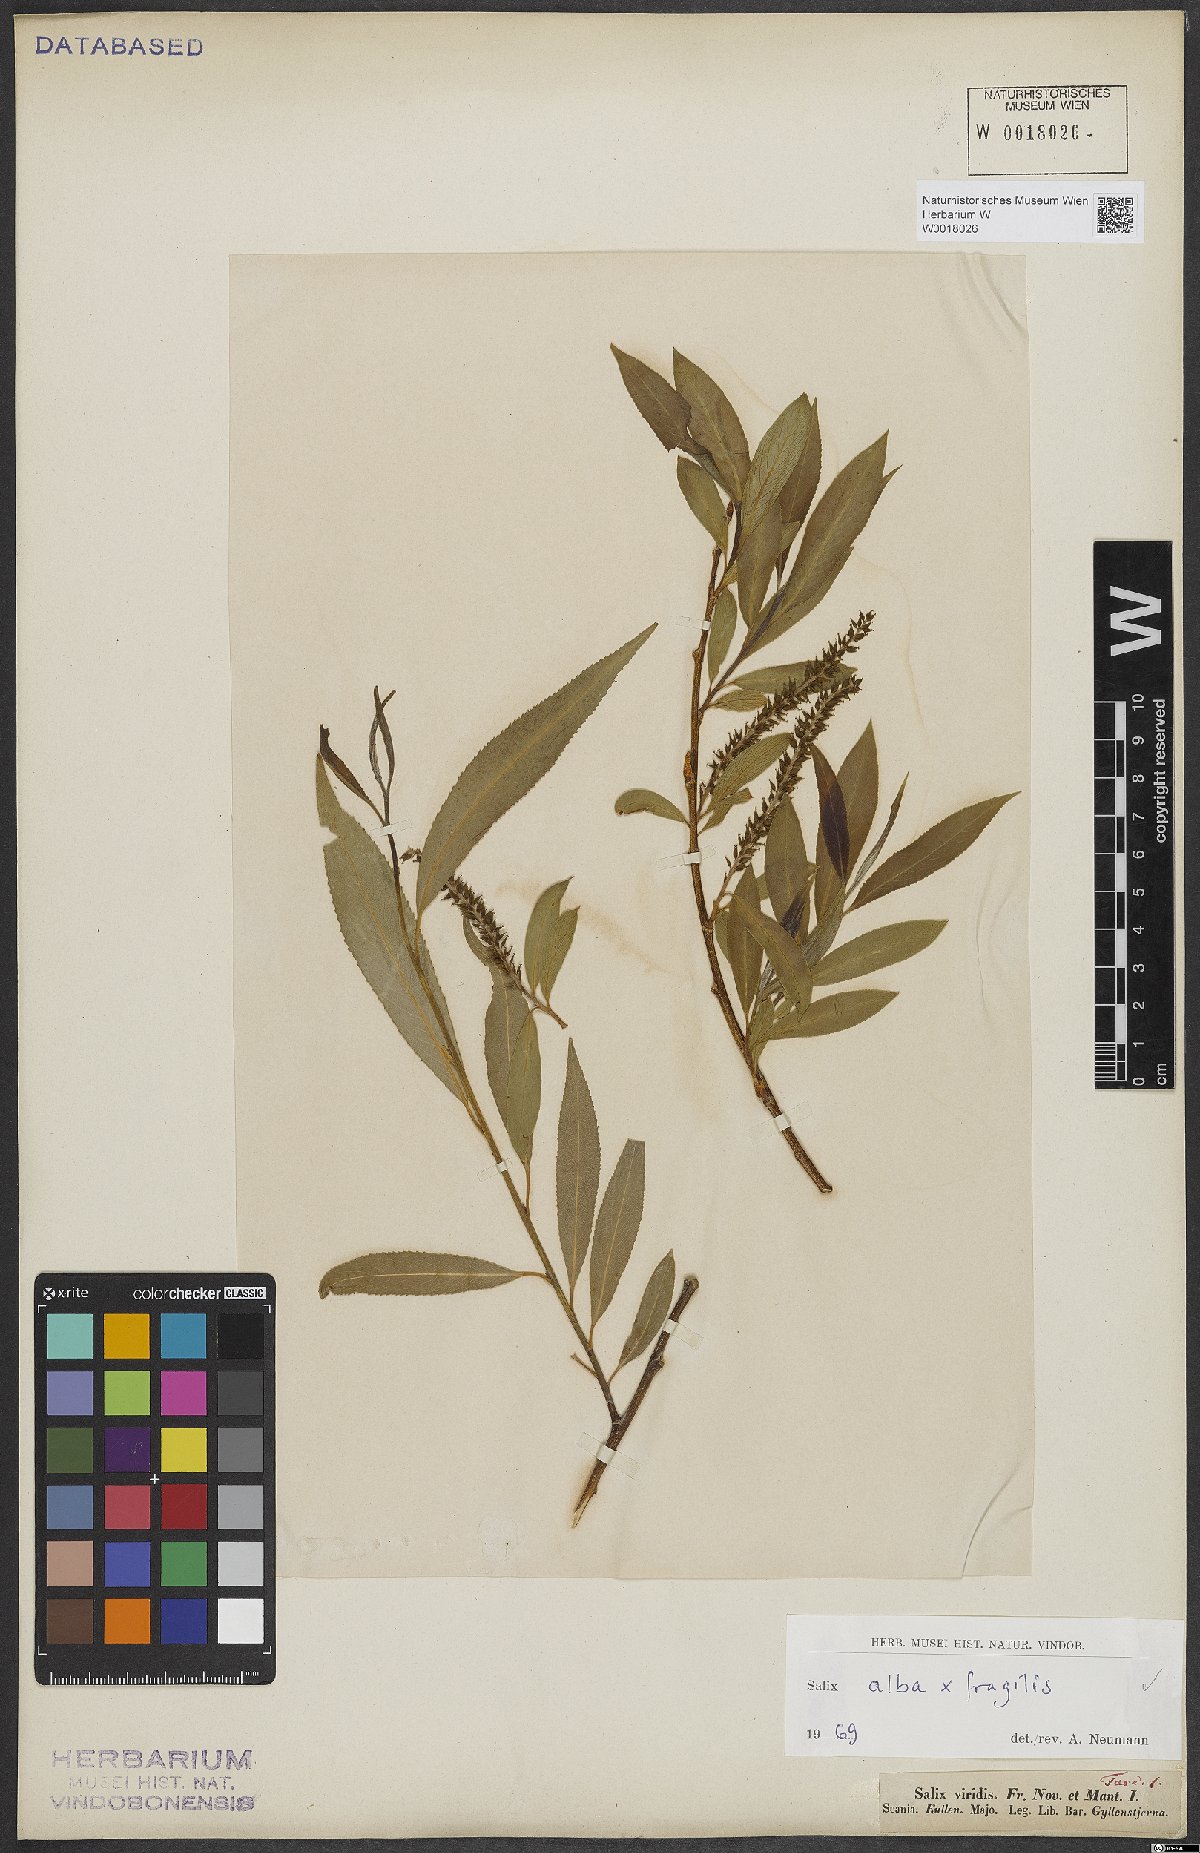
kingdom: Plantae
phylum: Tracheophyta
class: Magnoliopsida
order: Malpighiales
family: Salicaceae
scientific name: Salicaceae
